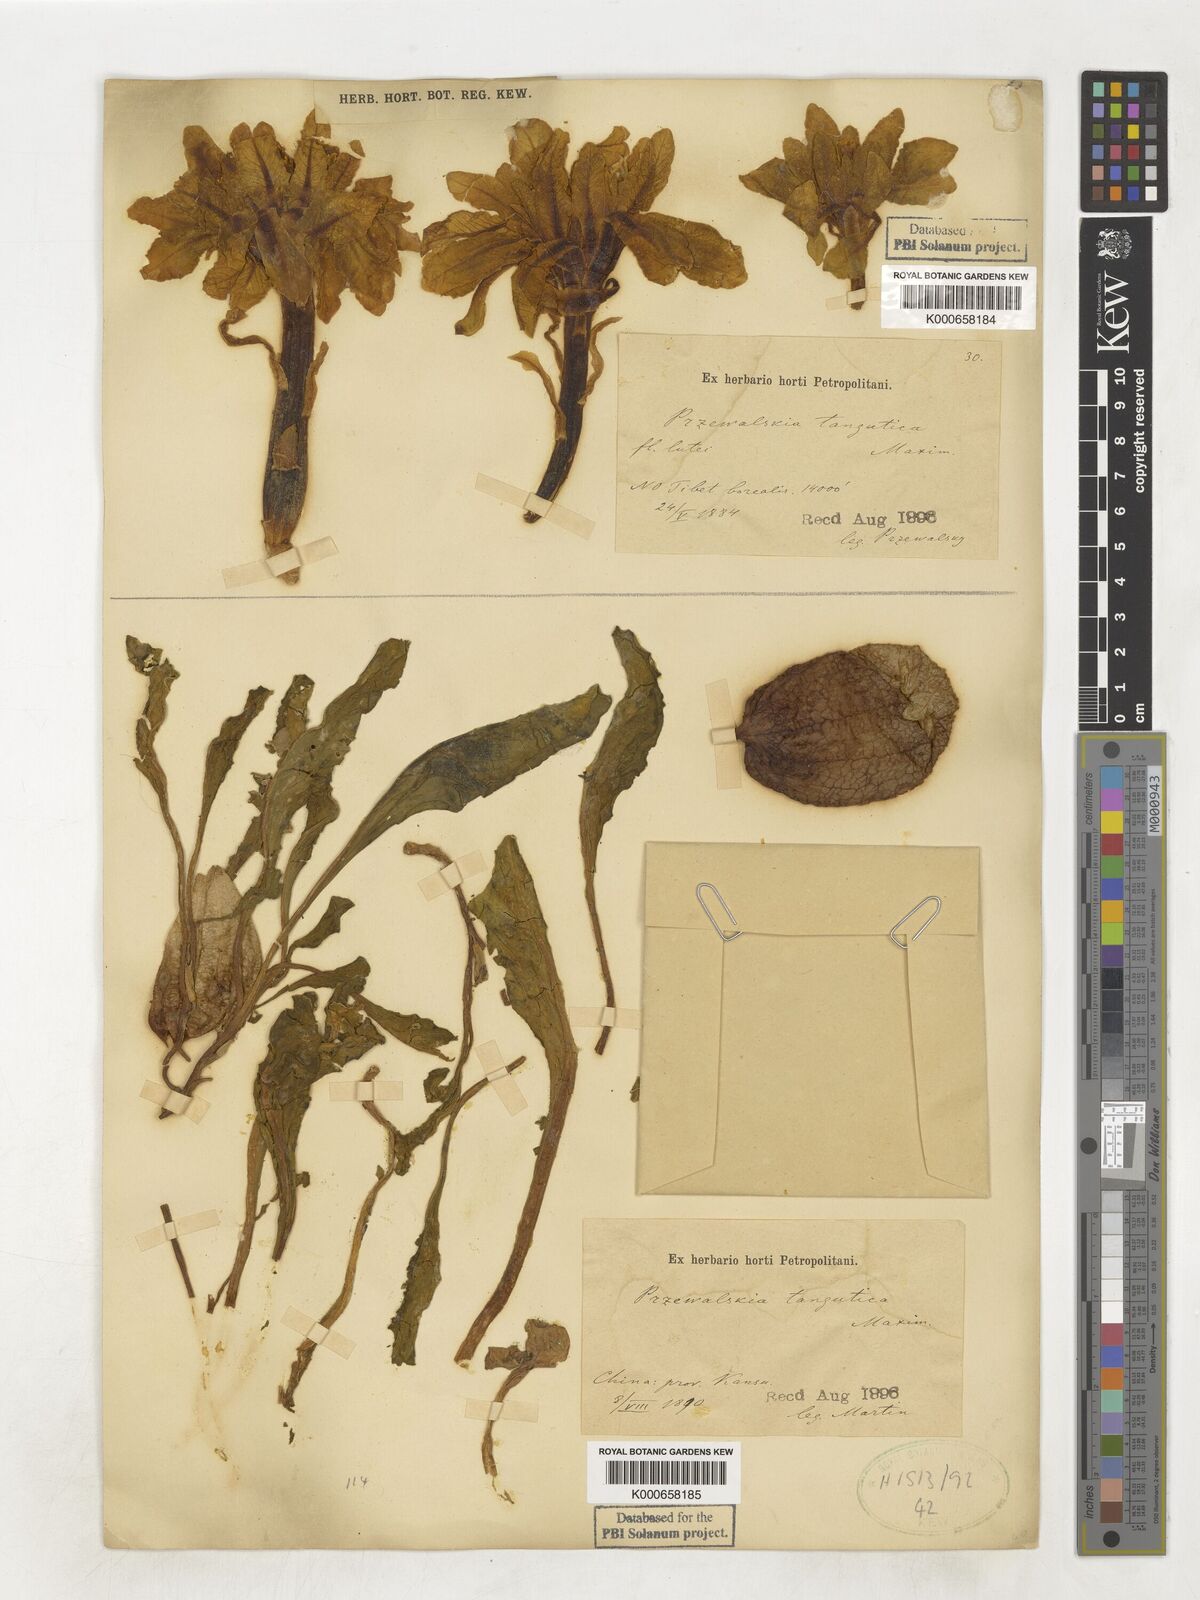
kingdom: Plantae
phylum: Tracheophyta
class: Magnoliopsida
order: Solanales
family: Solanaceae
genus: Przewalskia
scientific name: Przewalskia tangutica
